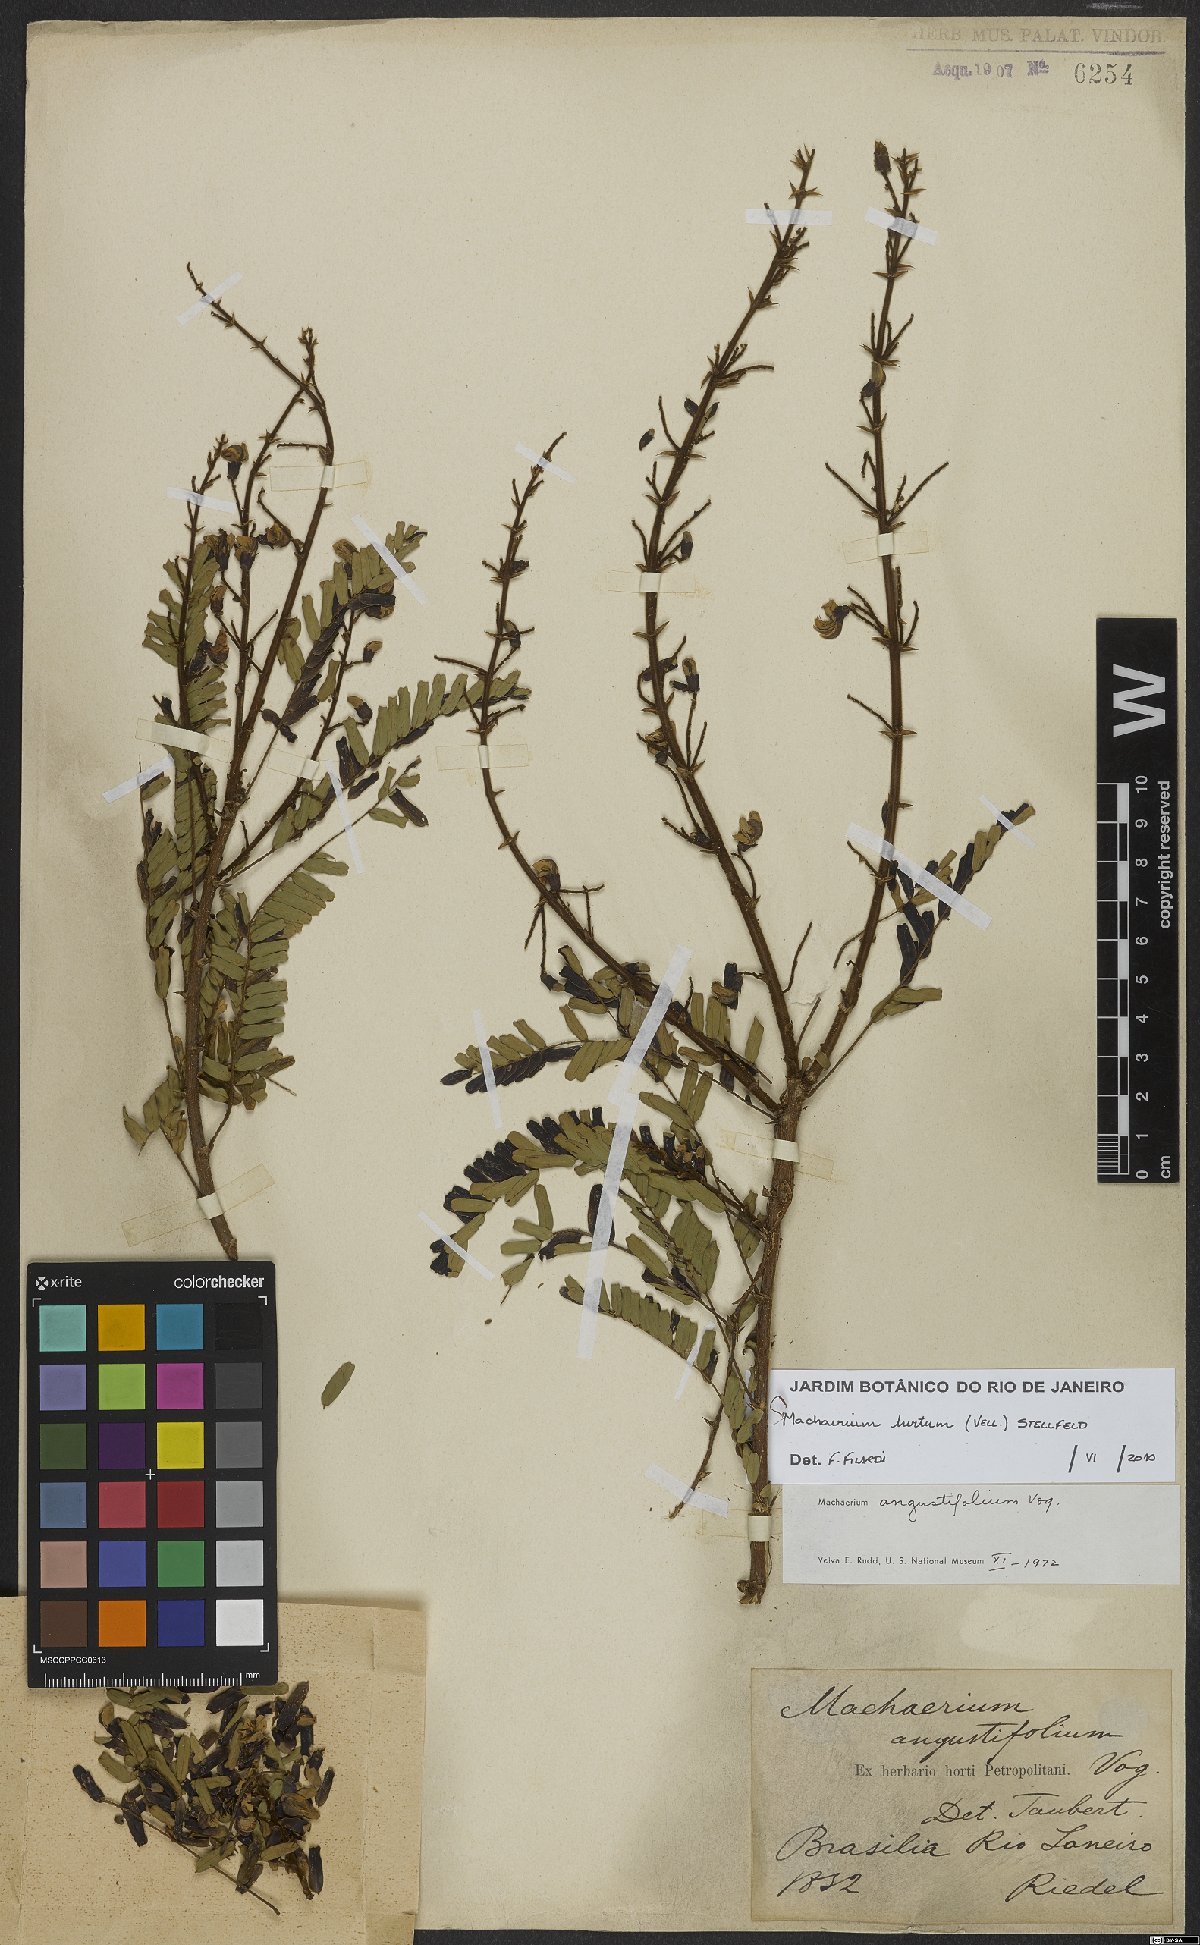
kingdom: Plantae
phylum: Tracheophyta
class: Magnoliopsida
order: Fabales
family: Fabaceae
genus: Machaerium
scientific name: Machaerium hirtum
